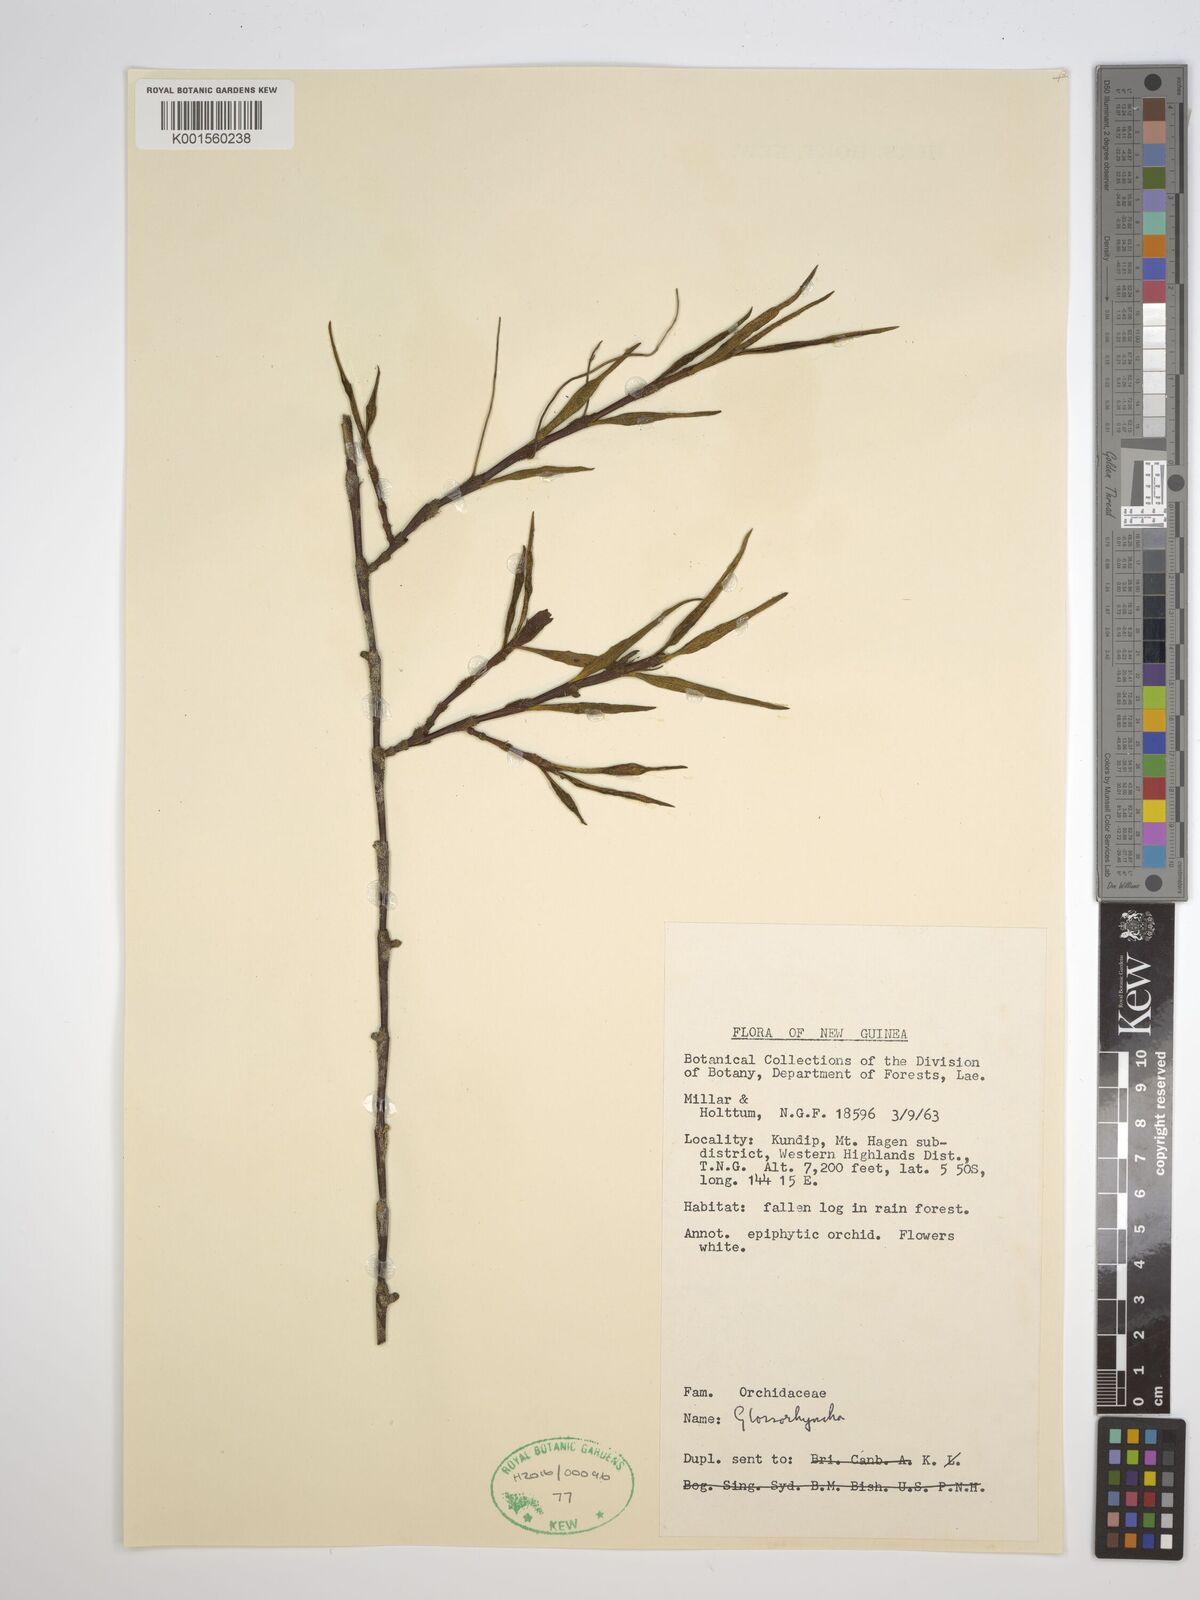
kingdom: Plantae
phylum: Tracheophyta
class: Liliopsida
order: Asparagales
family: Orchidaceae
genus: Glomera
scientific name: Glomera
